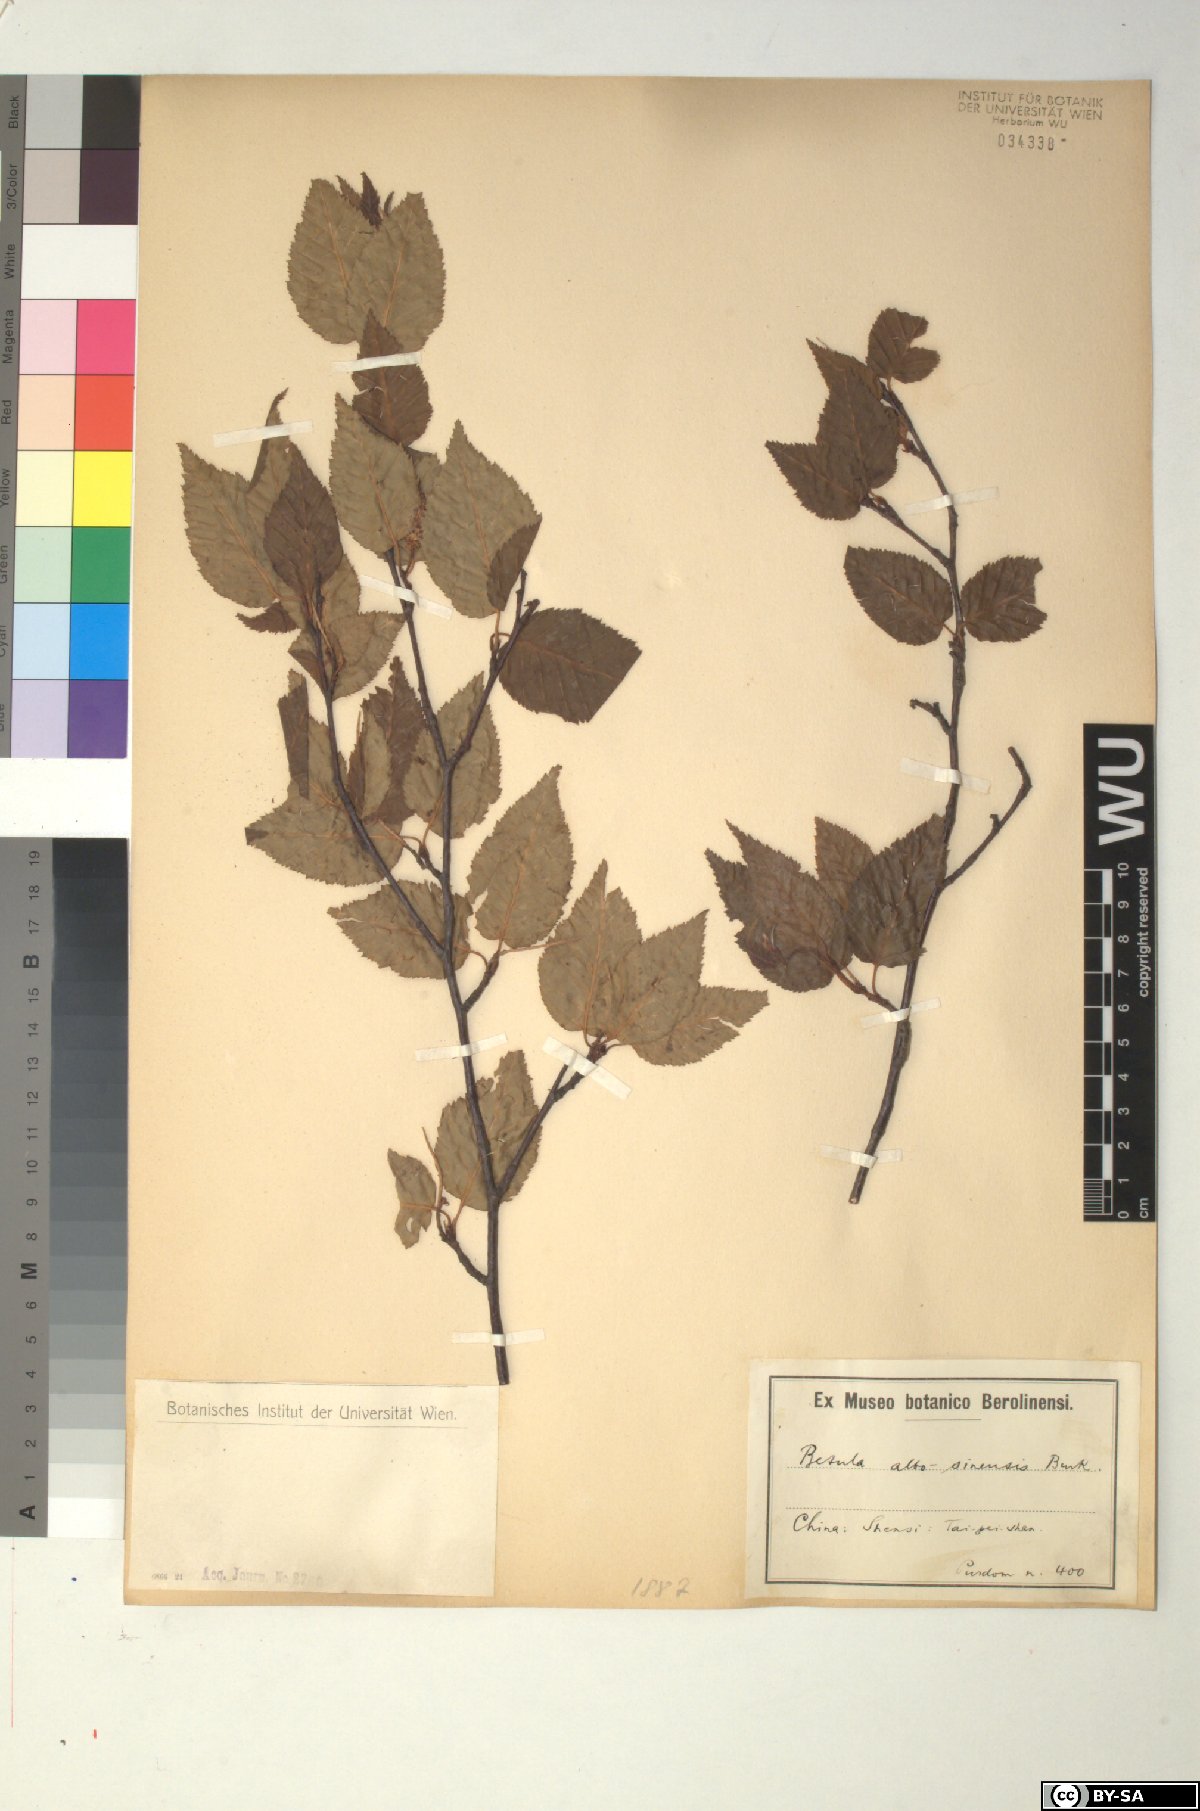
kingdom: Plantae
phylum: Tracheophyta
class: Magnoliopsida
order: Fagales
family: Betulaceae
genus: Betula
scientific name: Betula utilis
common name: Himalayan birch
